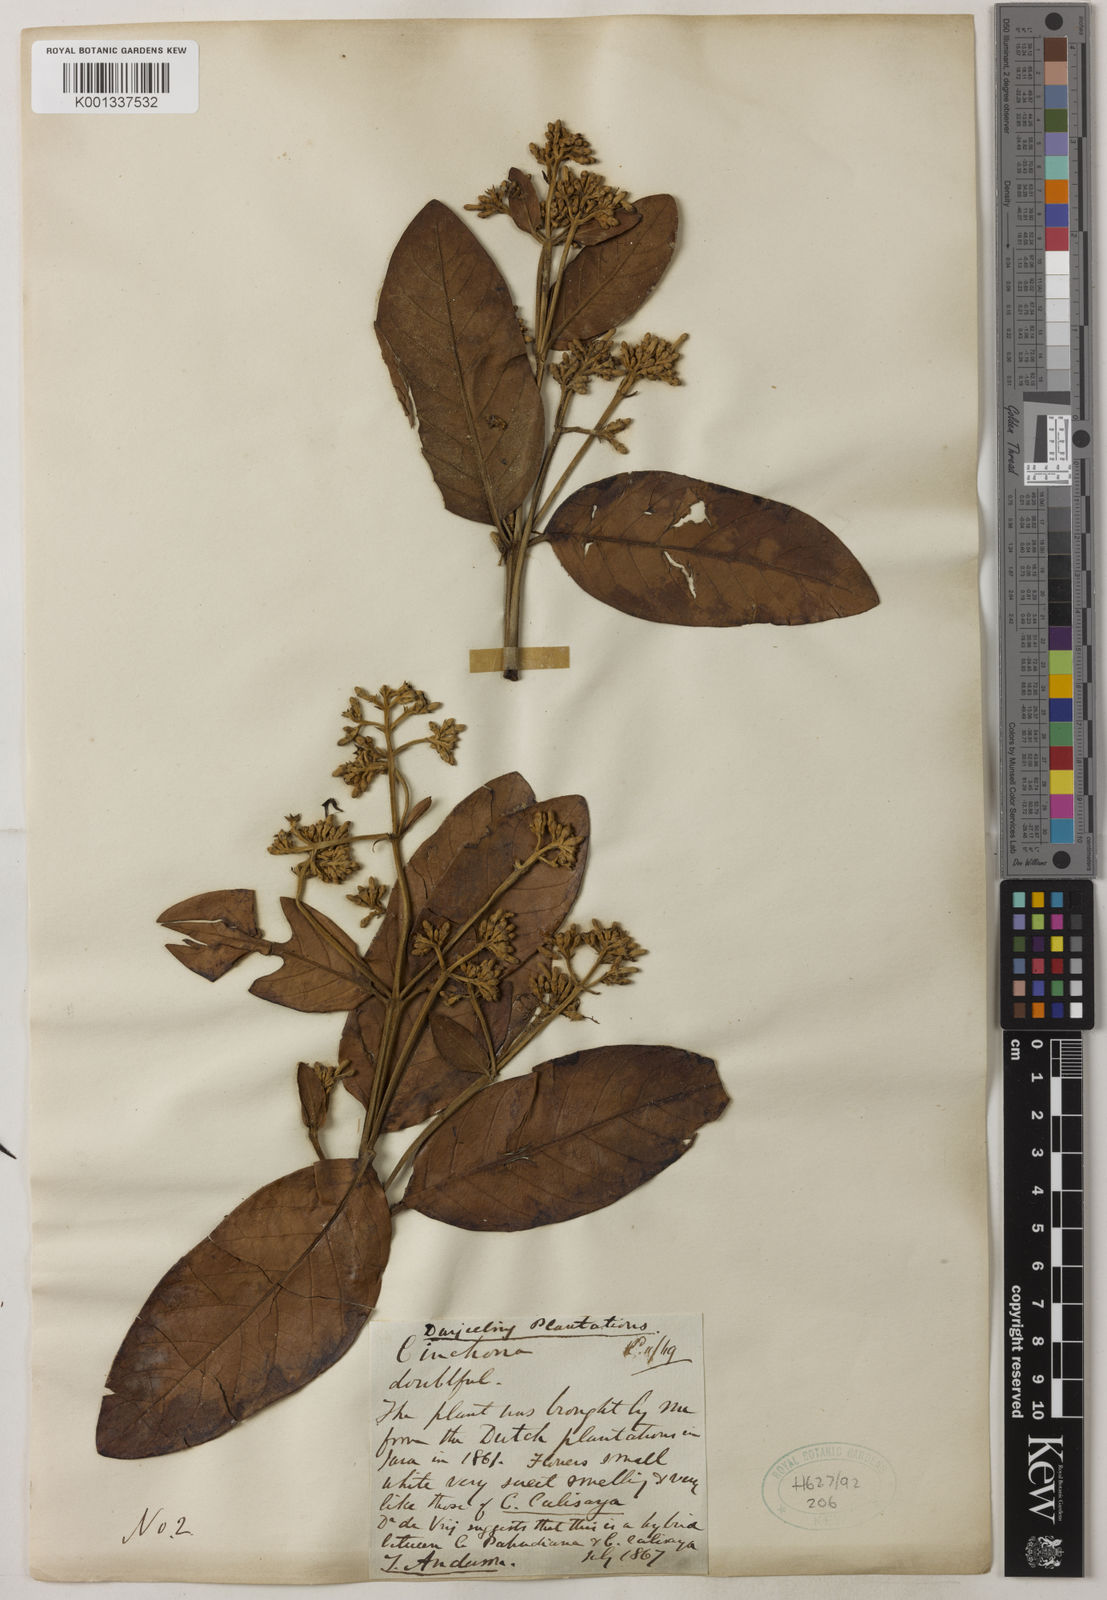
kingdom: Plantae
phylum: Tracheophyta
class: Magnoliopsida
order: Gentianales
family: Rubiaceae
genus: Cinchona
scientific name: Cinchona calisaya
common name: Ledgerbark
